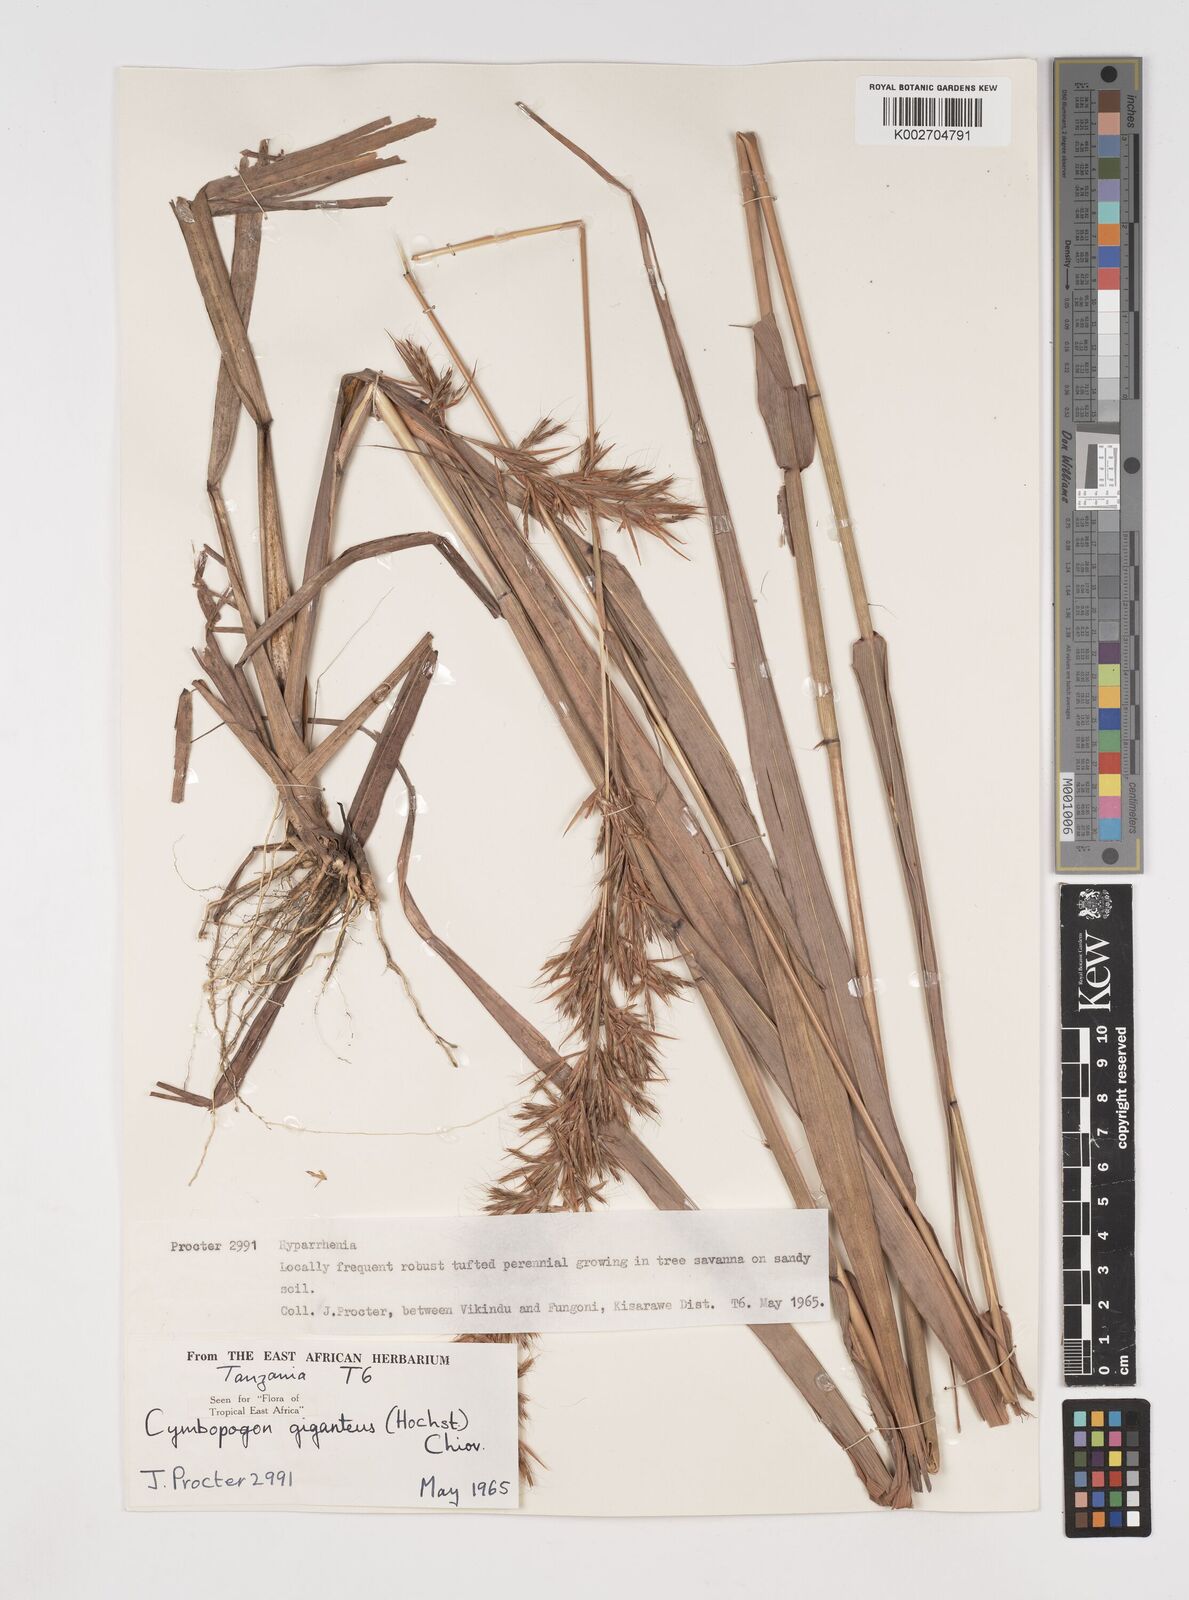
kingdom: Plantae
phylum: Tracheophyta
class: Liliopsida
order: Poales
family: Poaceae
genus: Cymbopogon
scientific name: Cymbopogon giganteus
